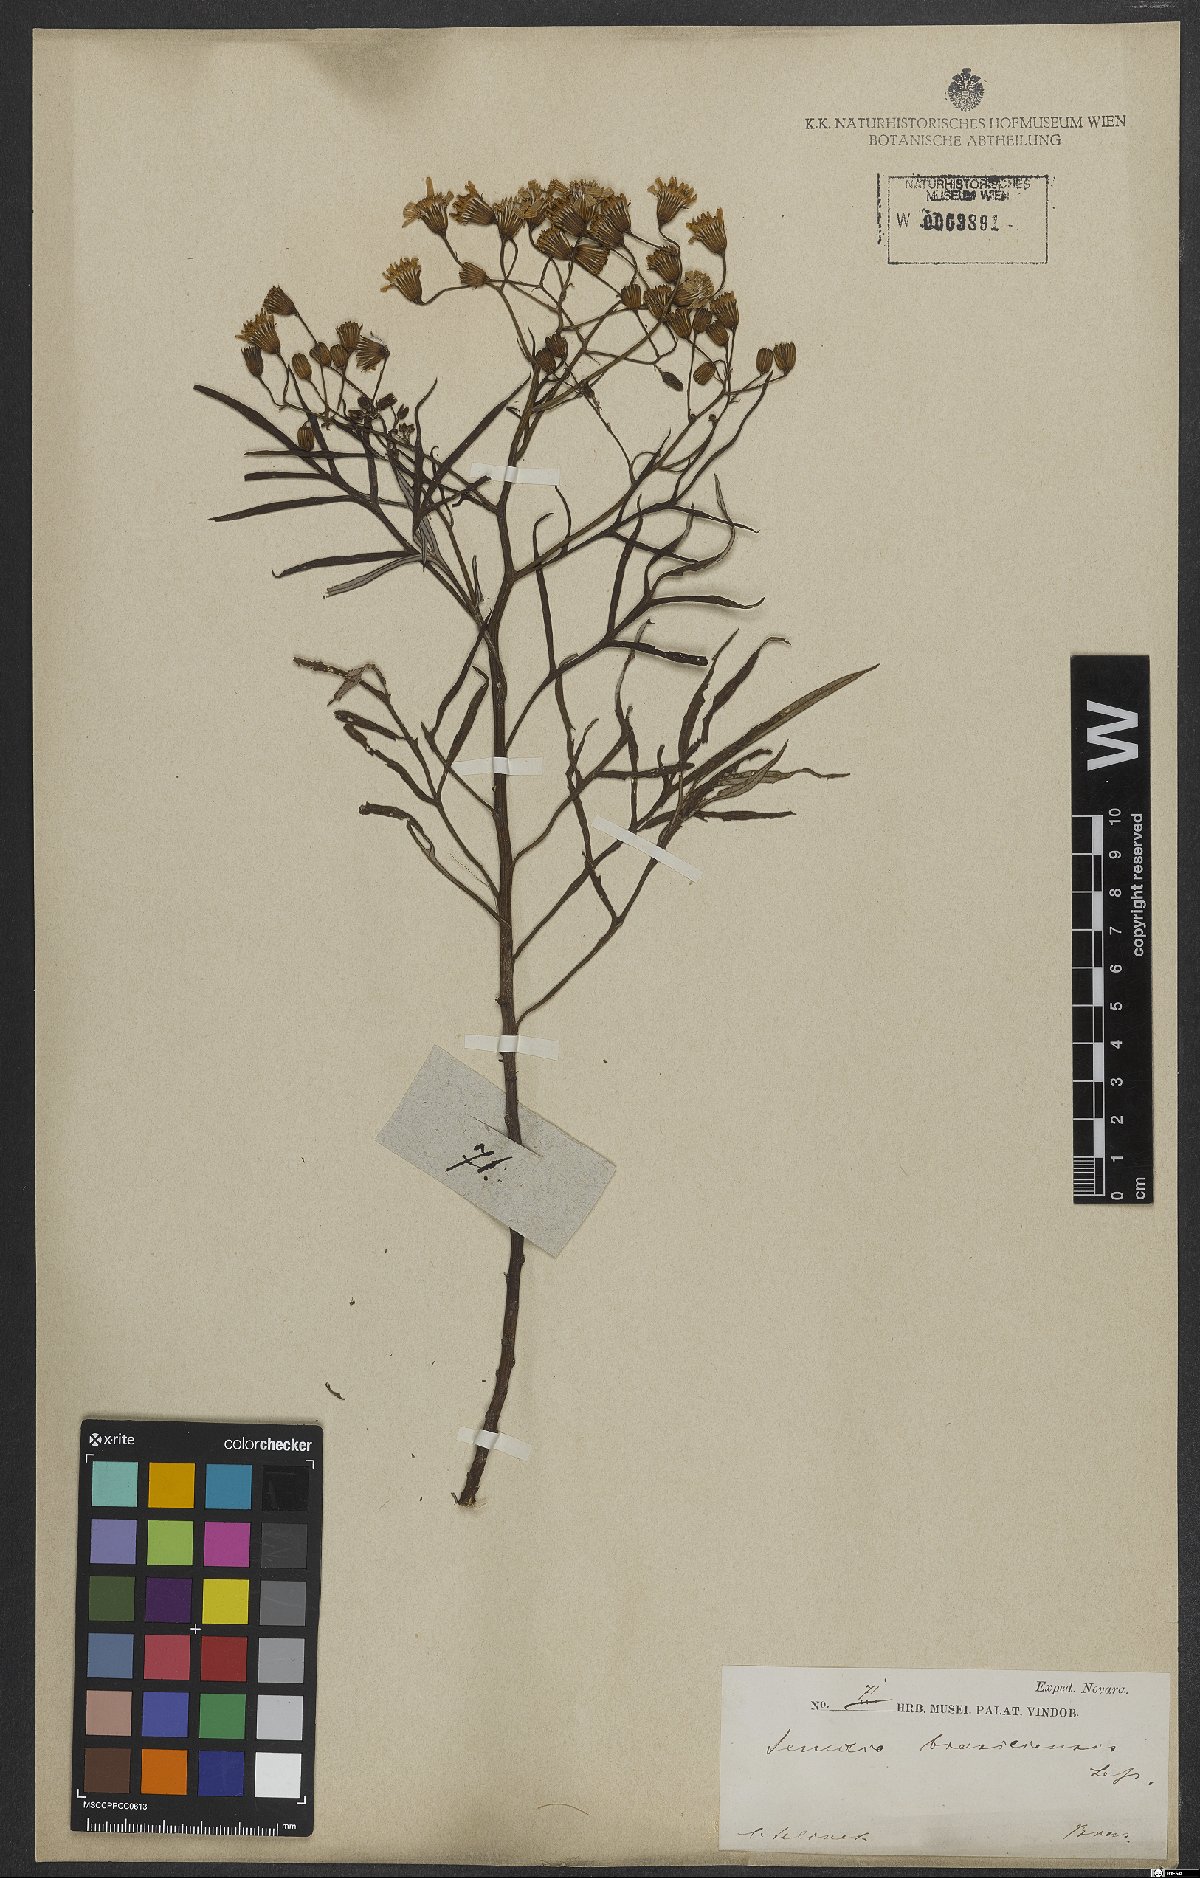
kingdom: Plantae
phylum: Tracheophyta
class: Magnoliopsida
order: Asterales
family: Asteraceae
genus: Senecio
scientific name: Senecio brasiliensis
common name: Hemp-leaf ragwort
